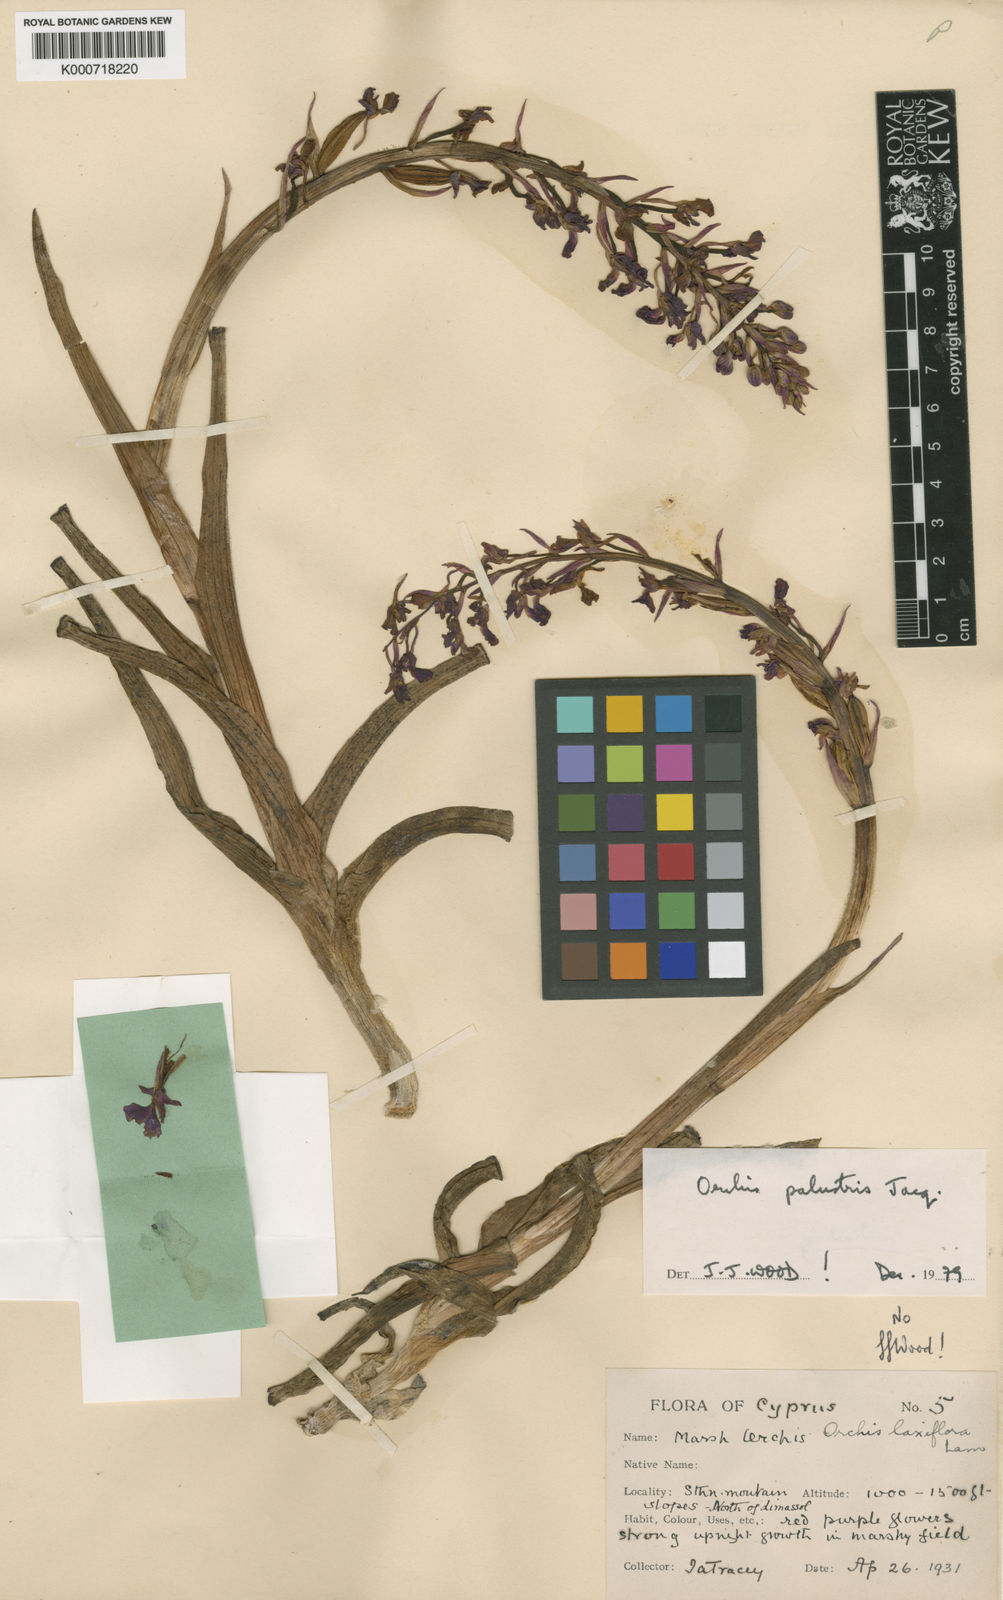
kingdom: Plantae
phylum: Tracheophyta
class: Liliopsida
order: Asparagales
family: Orchidaceae
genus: Anacamptis
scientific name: Anacamptis palustris
